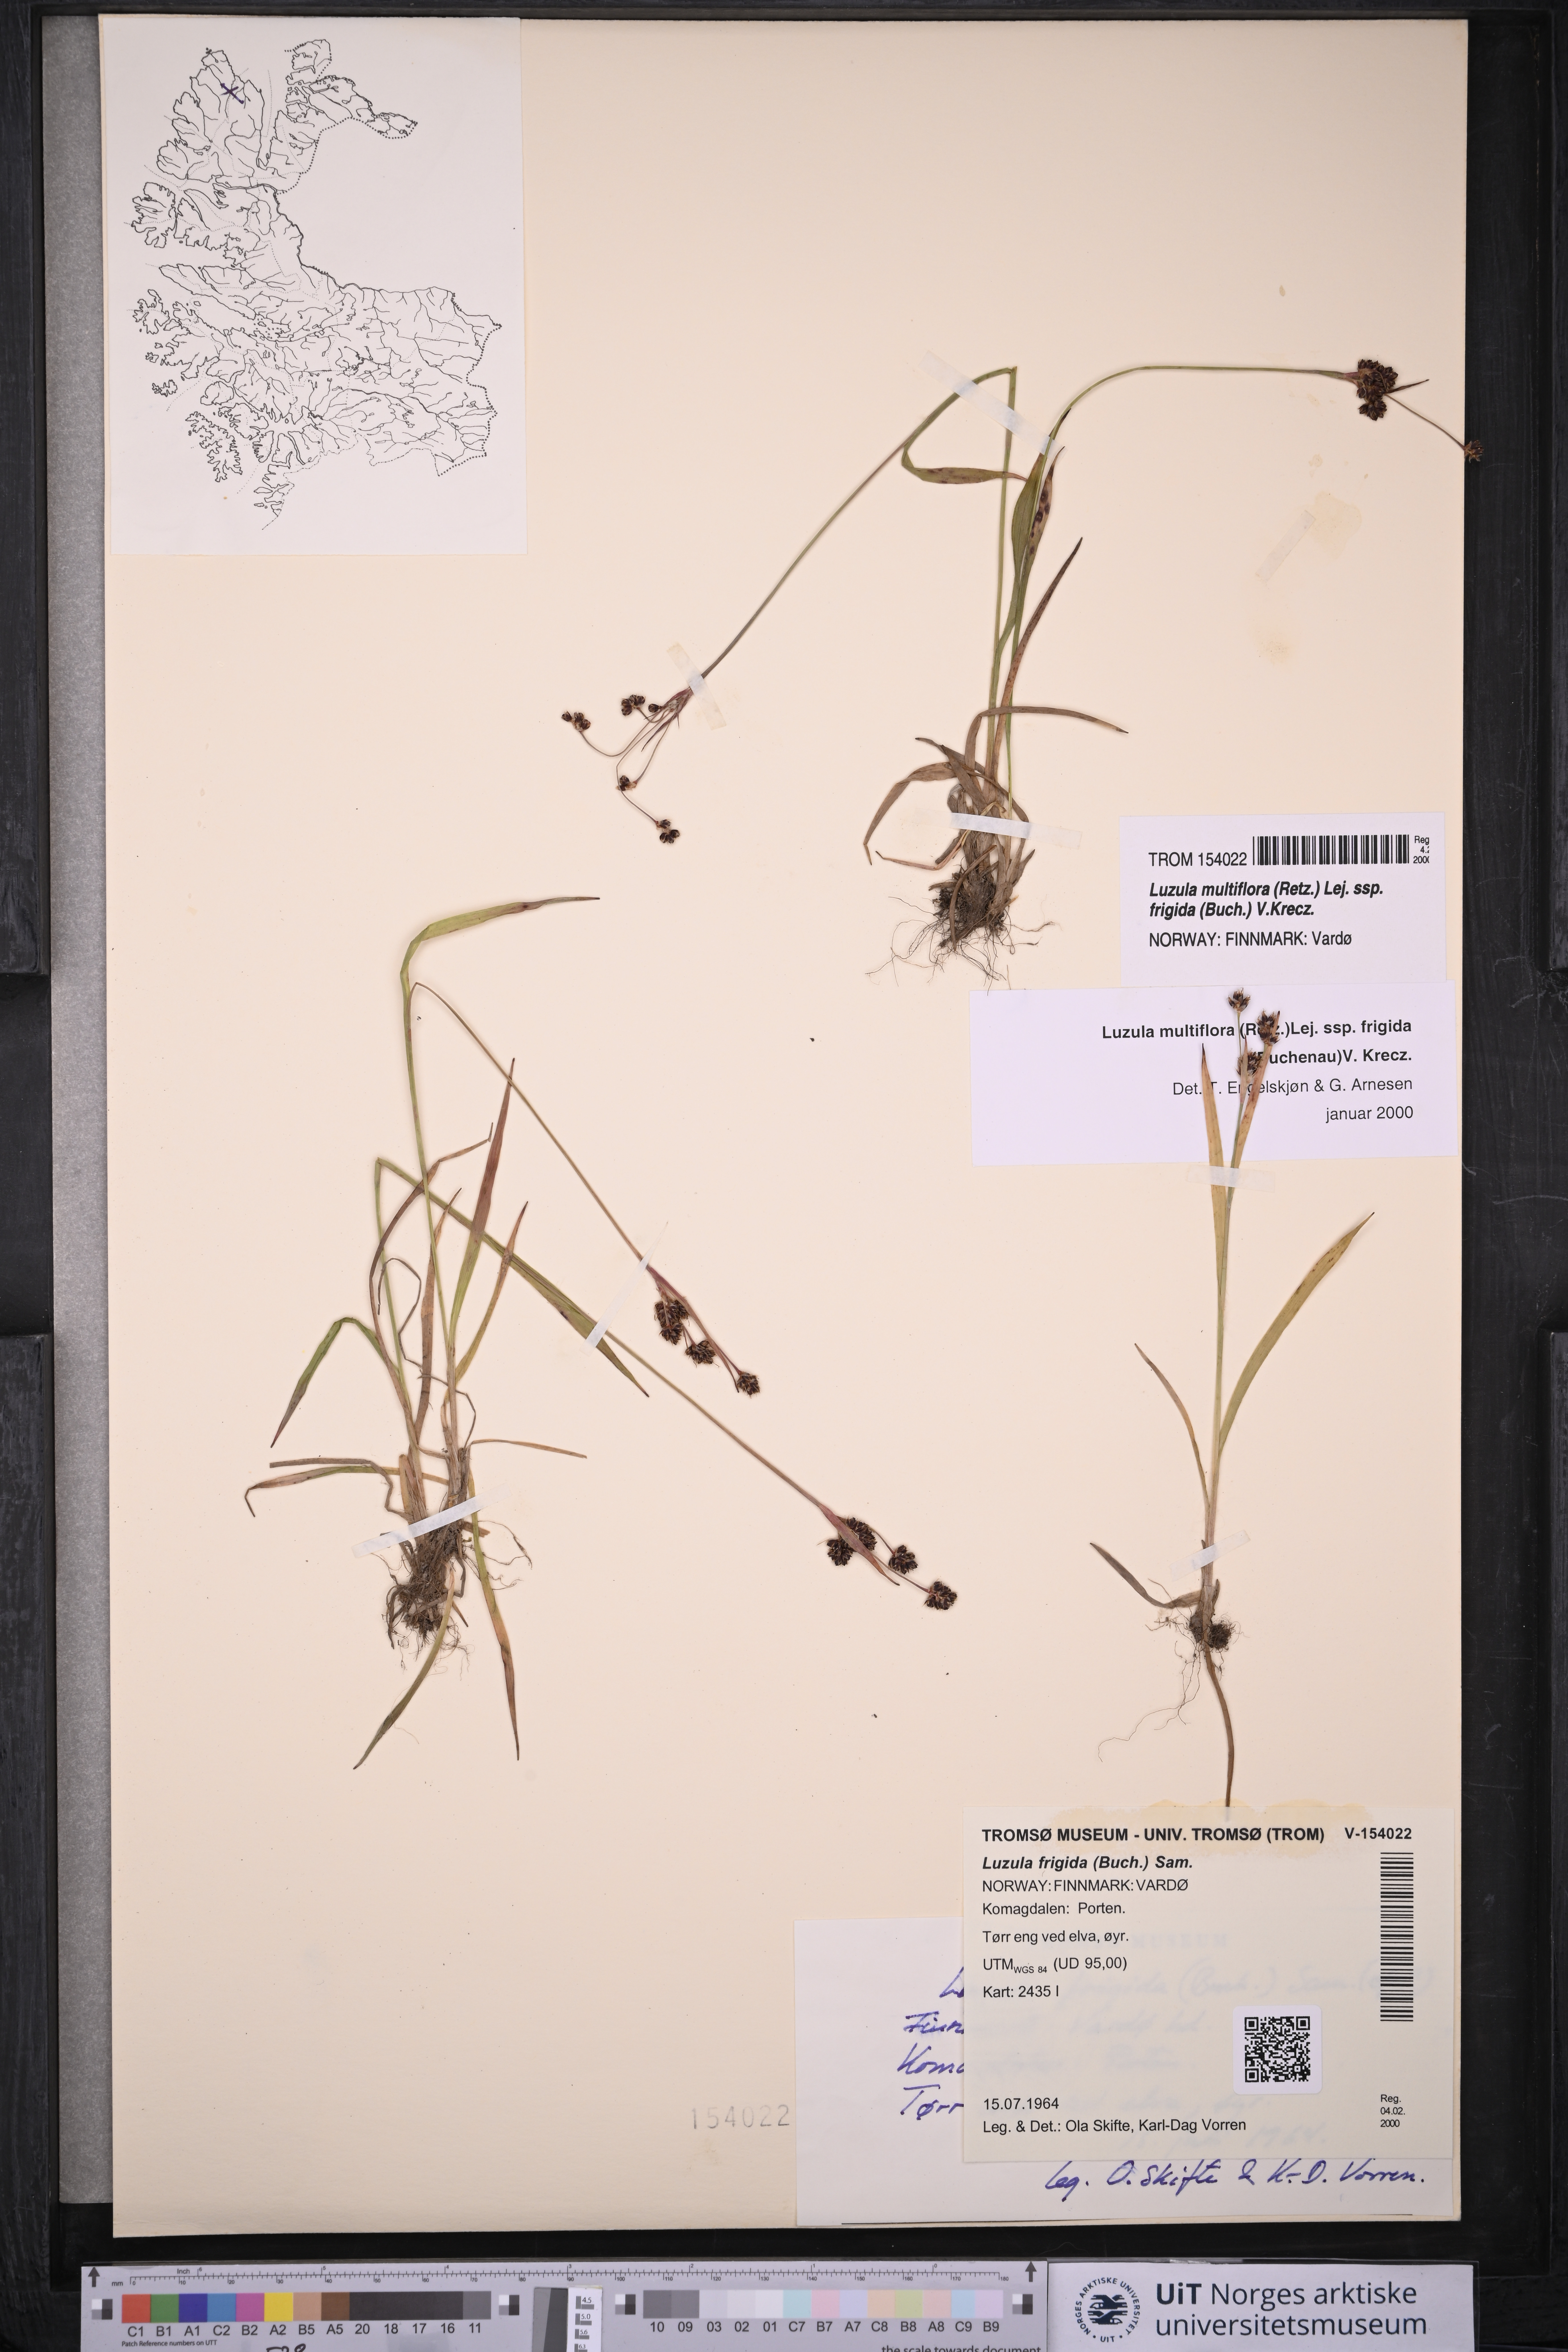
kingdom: Plantae
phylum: Tracheophyta
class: Liliopsida
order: Poales
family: Juncaceae
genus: Luzula
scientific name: Luzula multiflora
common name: Heath wood-rush
